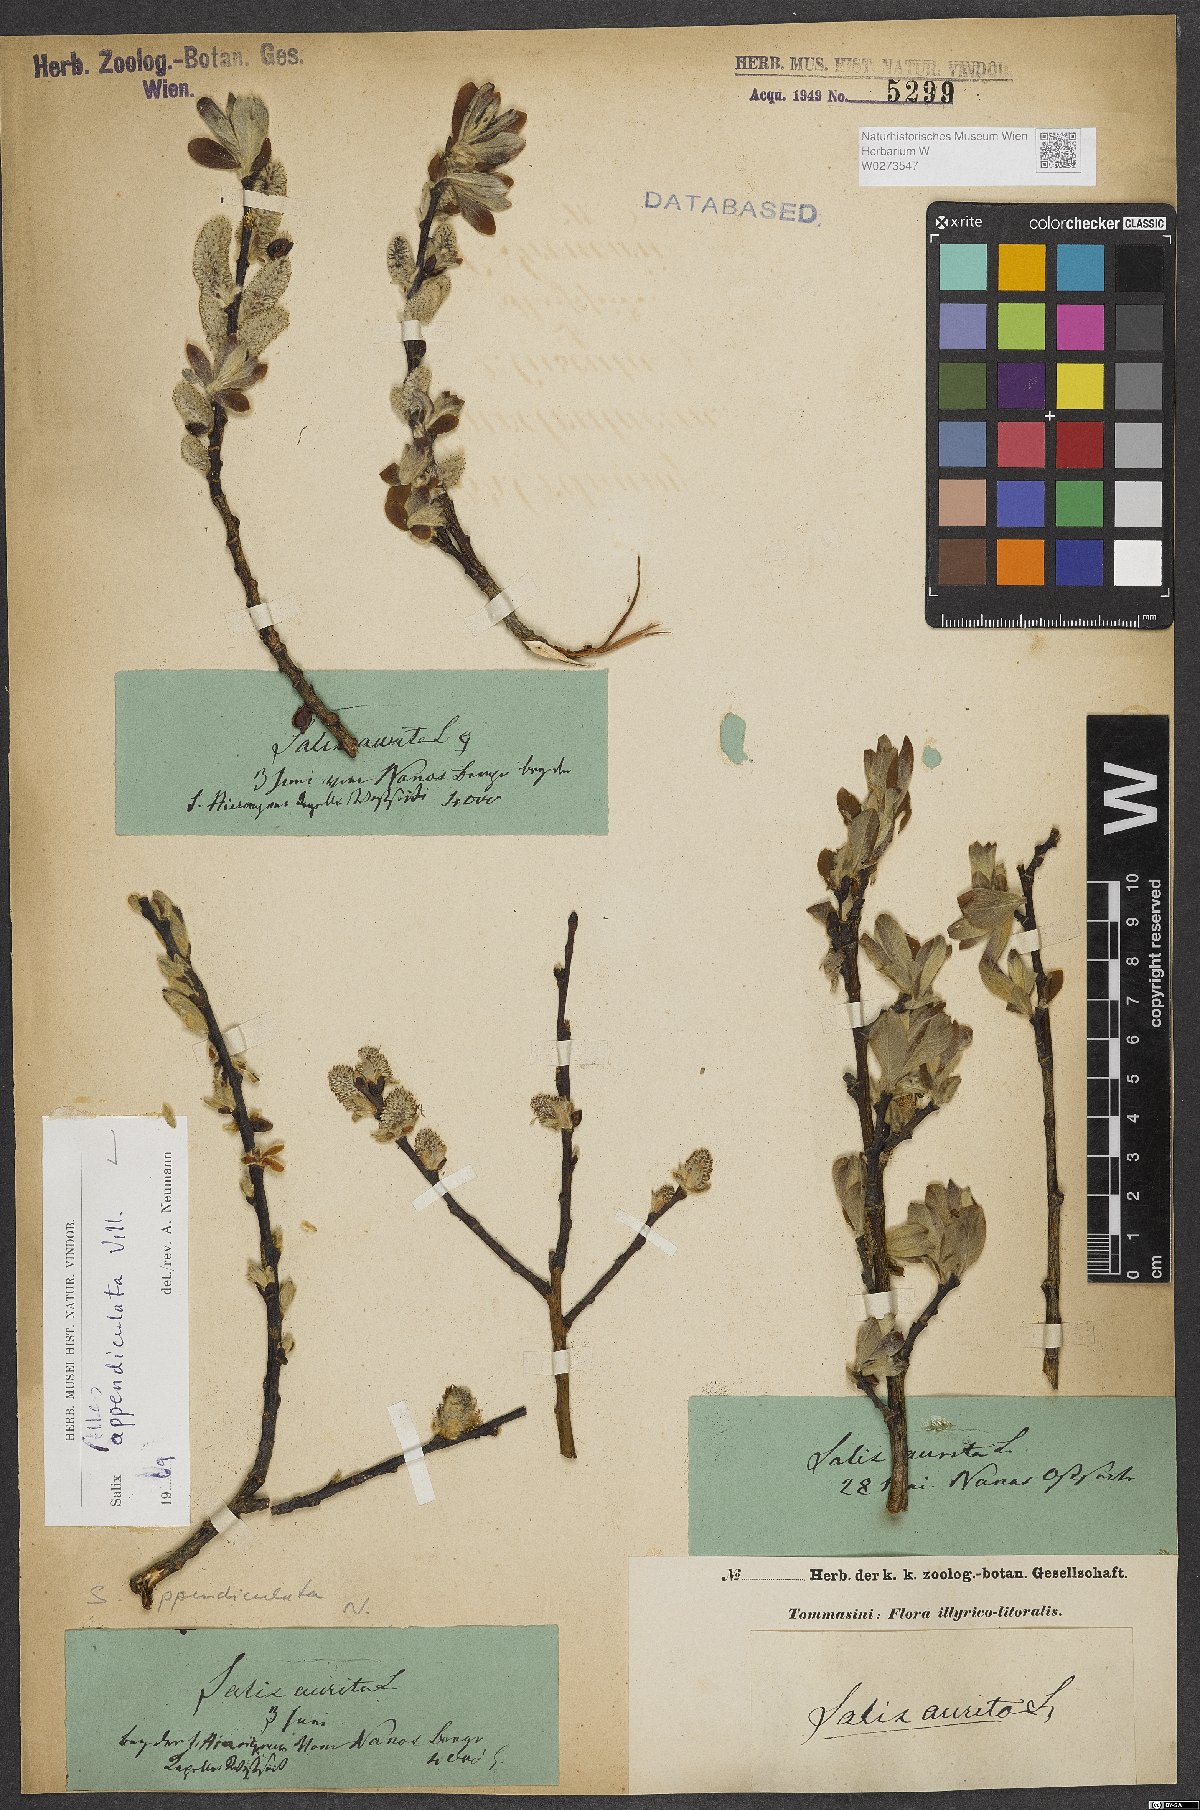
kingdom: Plantae
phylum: Tracheophyta
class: Magnoliopsida
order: Malpighiales
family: Salicaceae
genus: Salix
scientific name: Salix appendiculata
